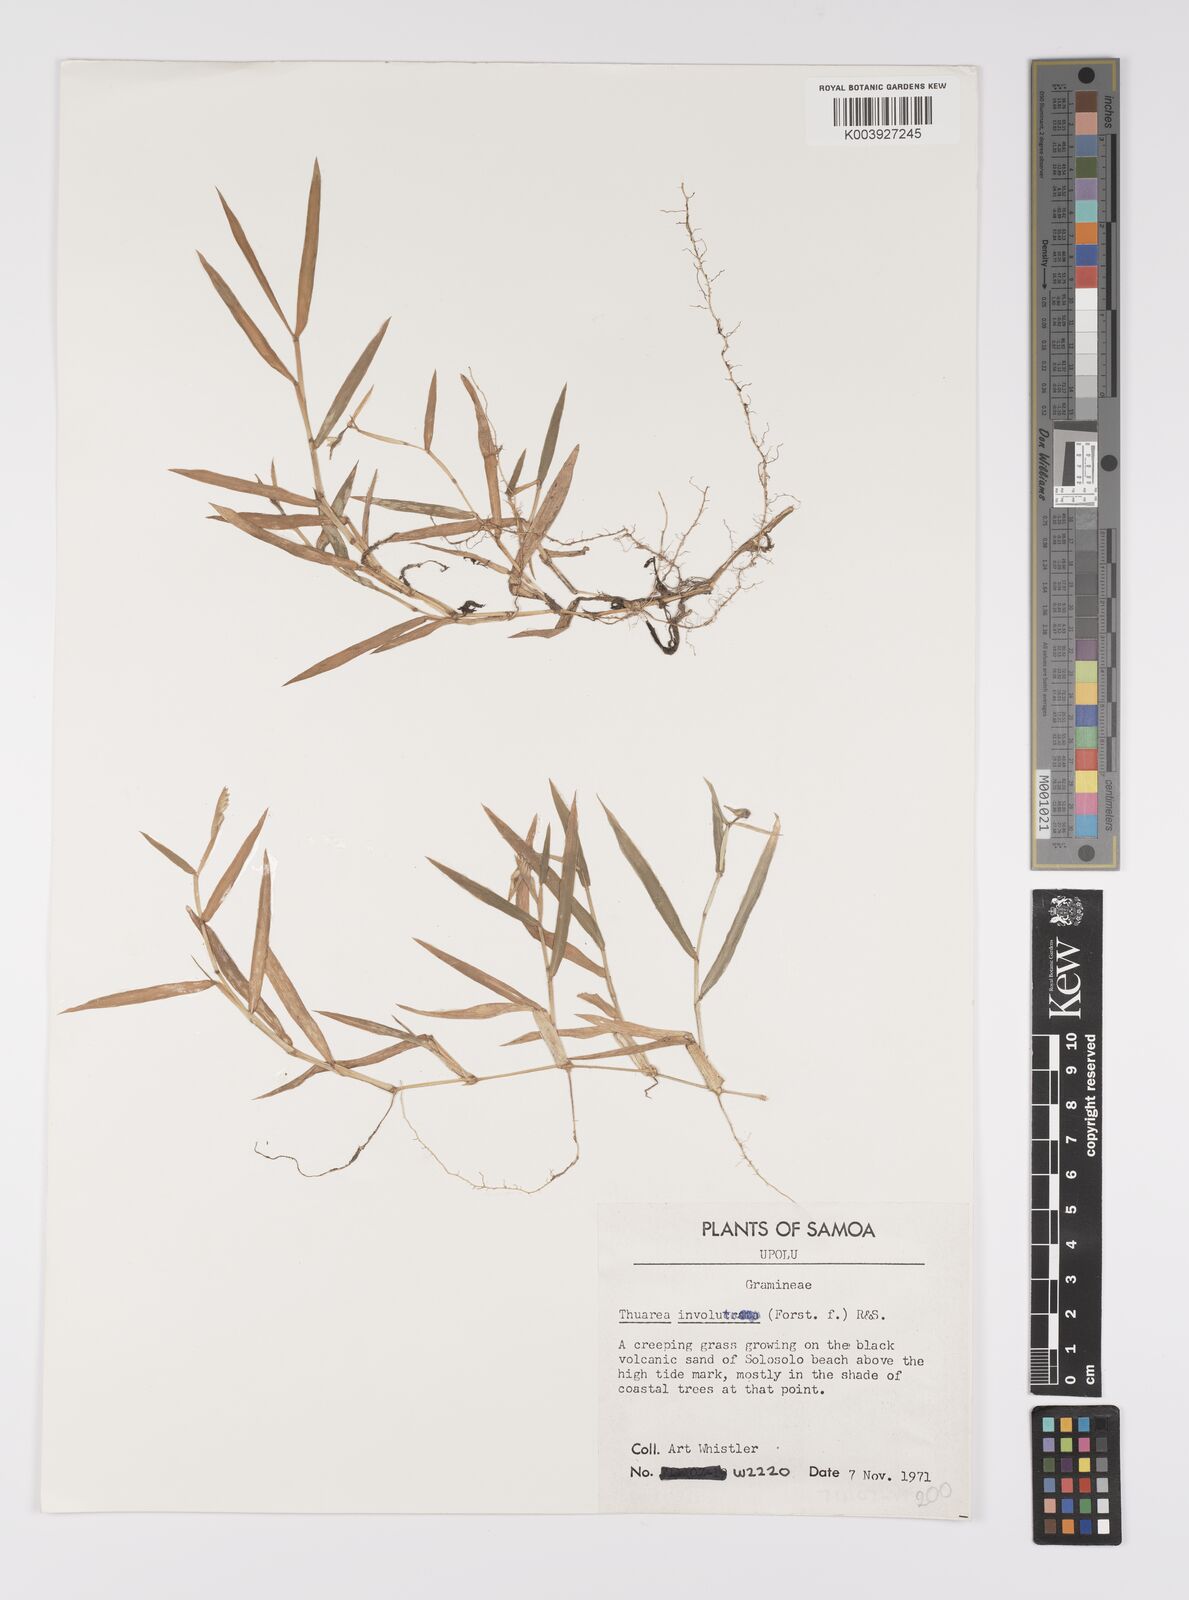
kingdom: Plantae
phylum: Tracheophyta
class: Liliopsida
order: Poales
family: Poaceae
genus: Thuarea
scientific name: Thuarea involuta
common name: Tropical beach grass
